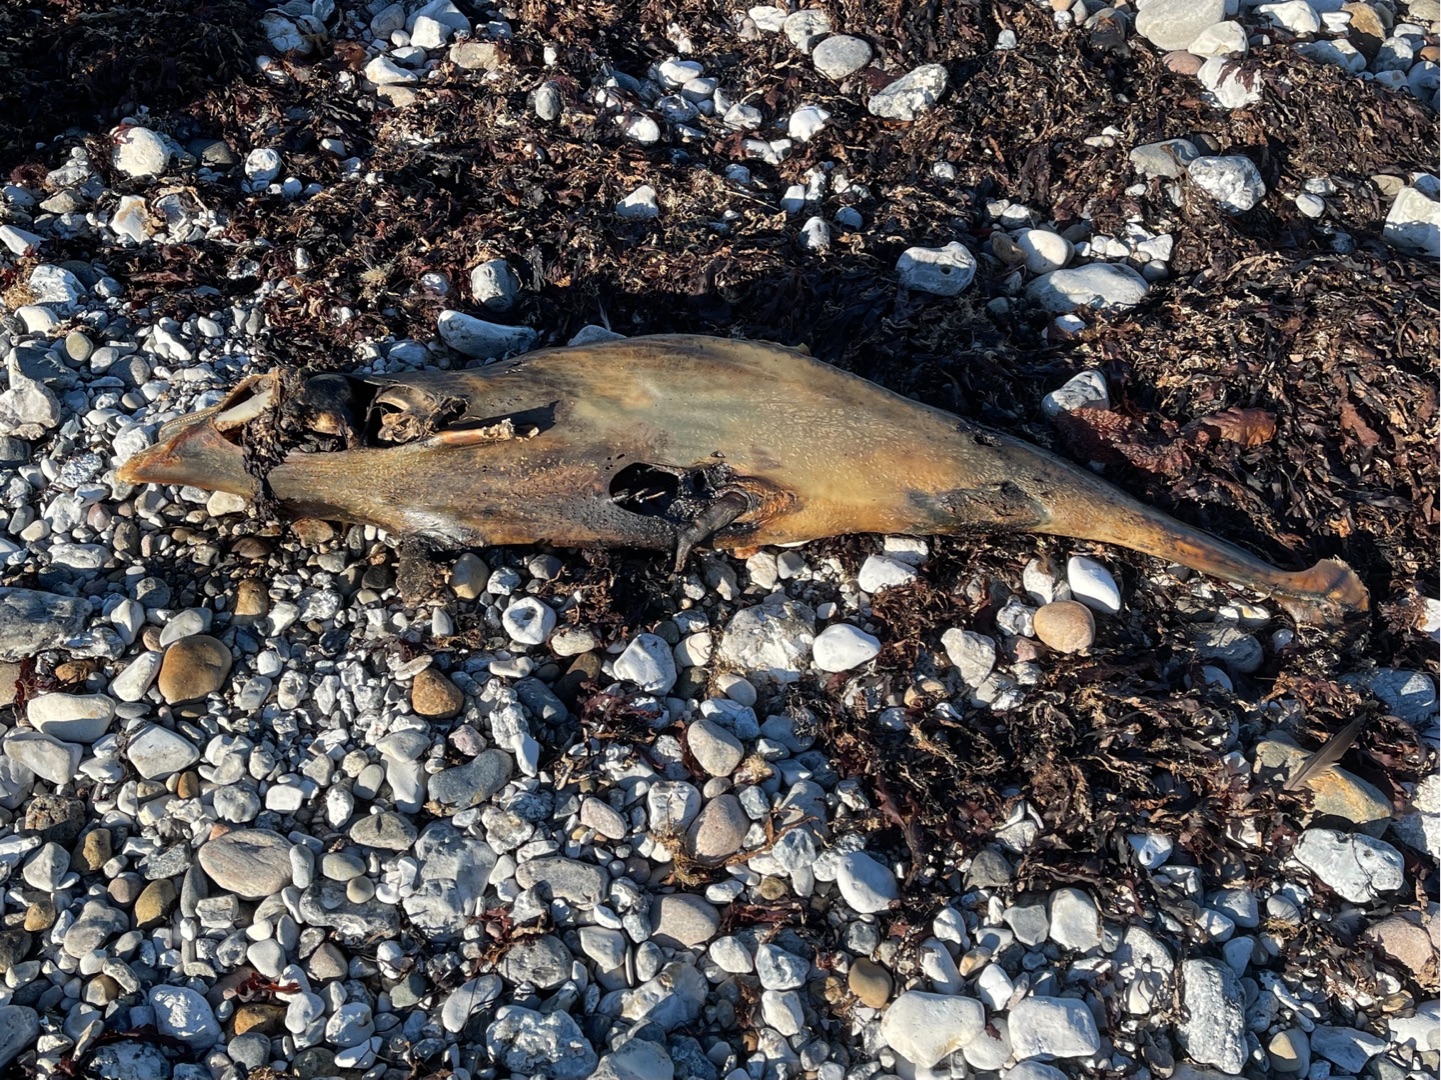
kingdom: Animalia
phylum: Chordata
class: Mammalia
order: Cetacea
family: Phocoenidae
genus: Phocoena
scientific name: Phocoena phocoena
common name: Marsvin
